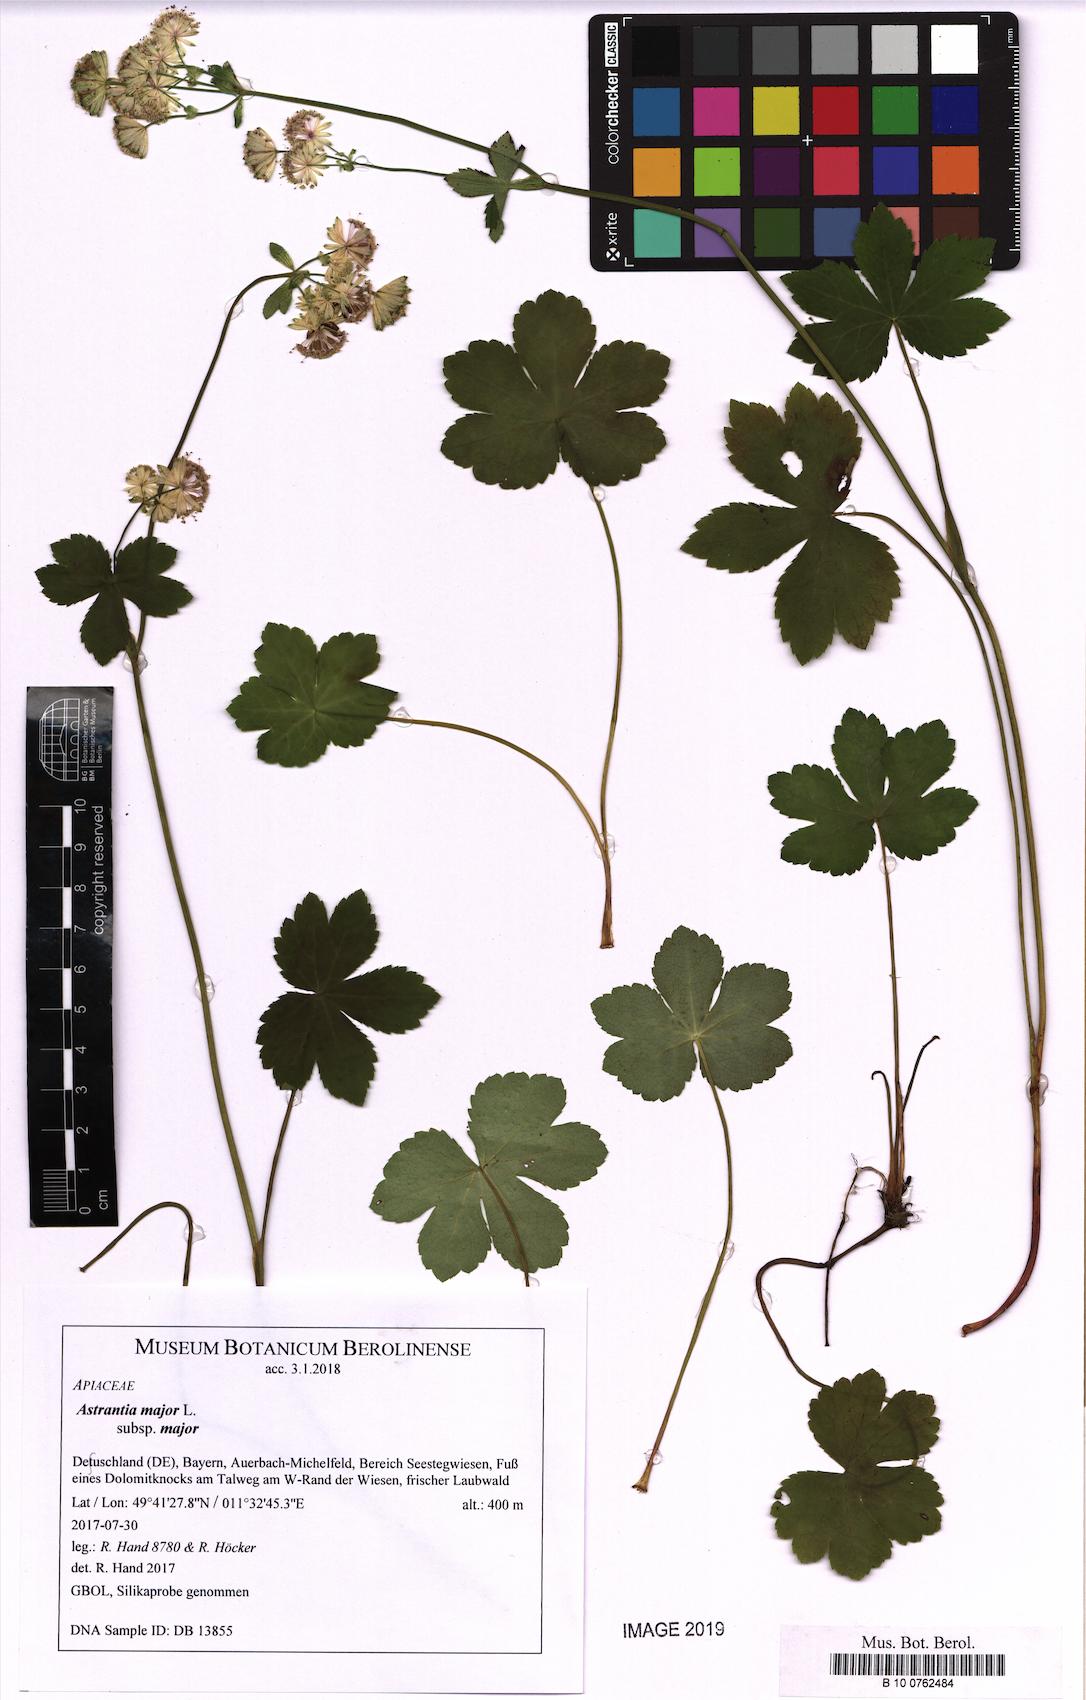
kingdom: Plantae
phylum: Tracheophyta
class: Magnoliopsida
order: Apiales
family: Apiaceae
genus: Astrantia
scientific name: Astrantia major
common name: Greater masterwort
